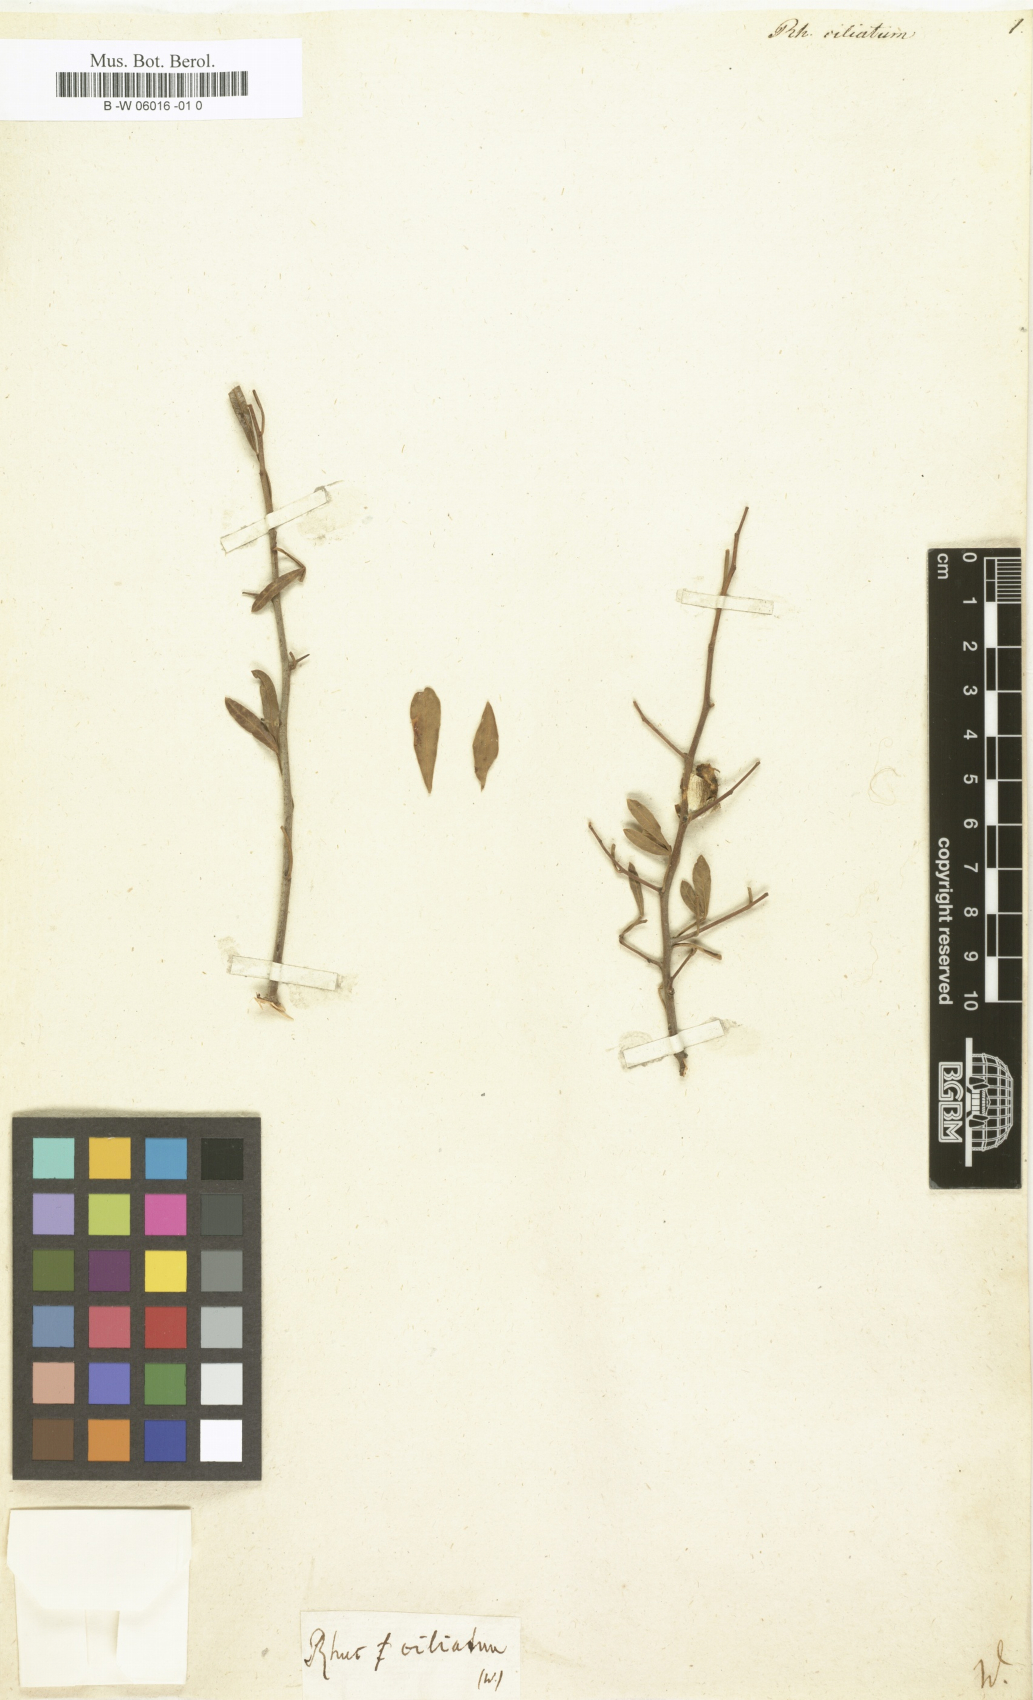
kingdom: Plantae
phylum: Tracheophyta
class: Magnoliopsida
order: Sapindales
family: Anacardiaceae
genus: Searsia
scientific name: Searsia
